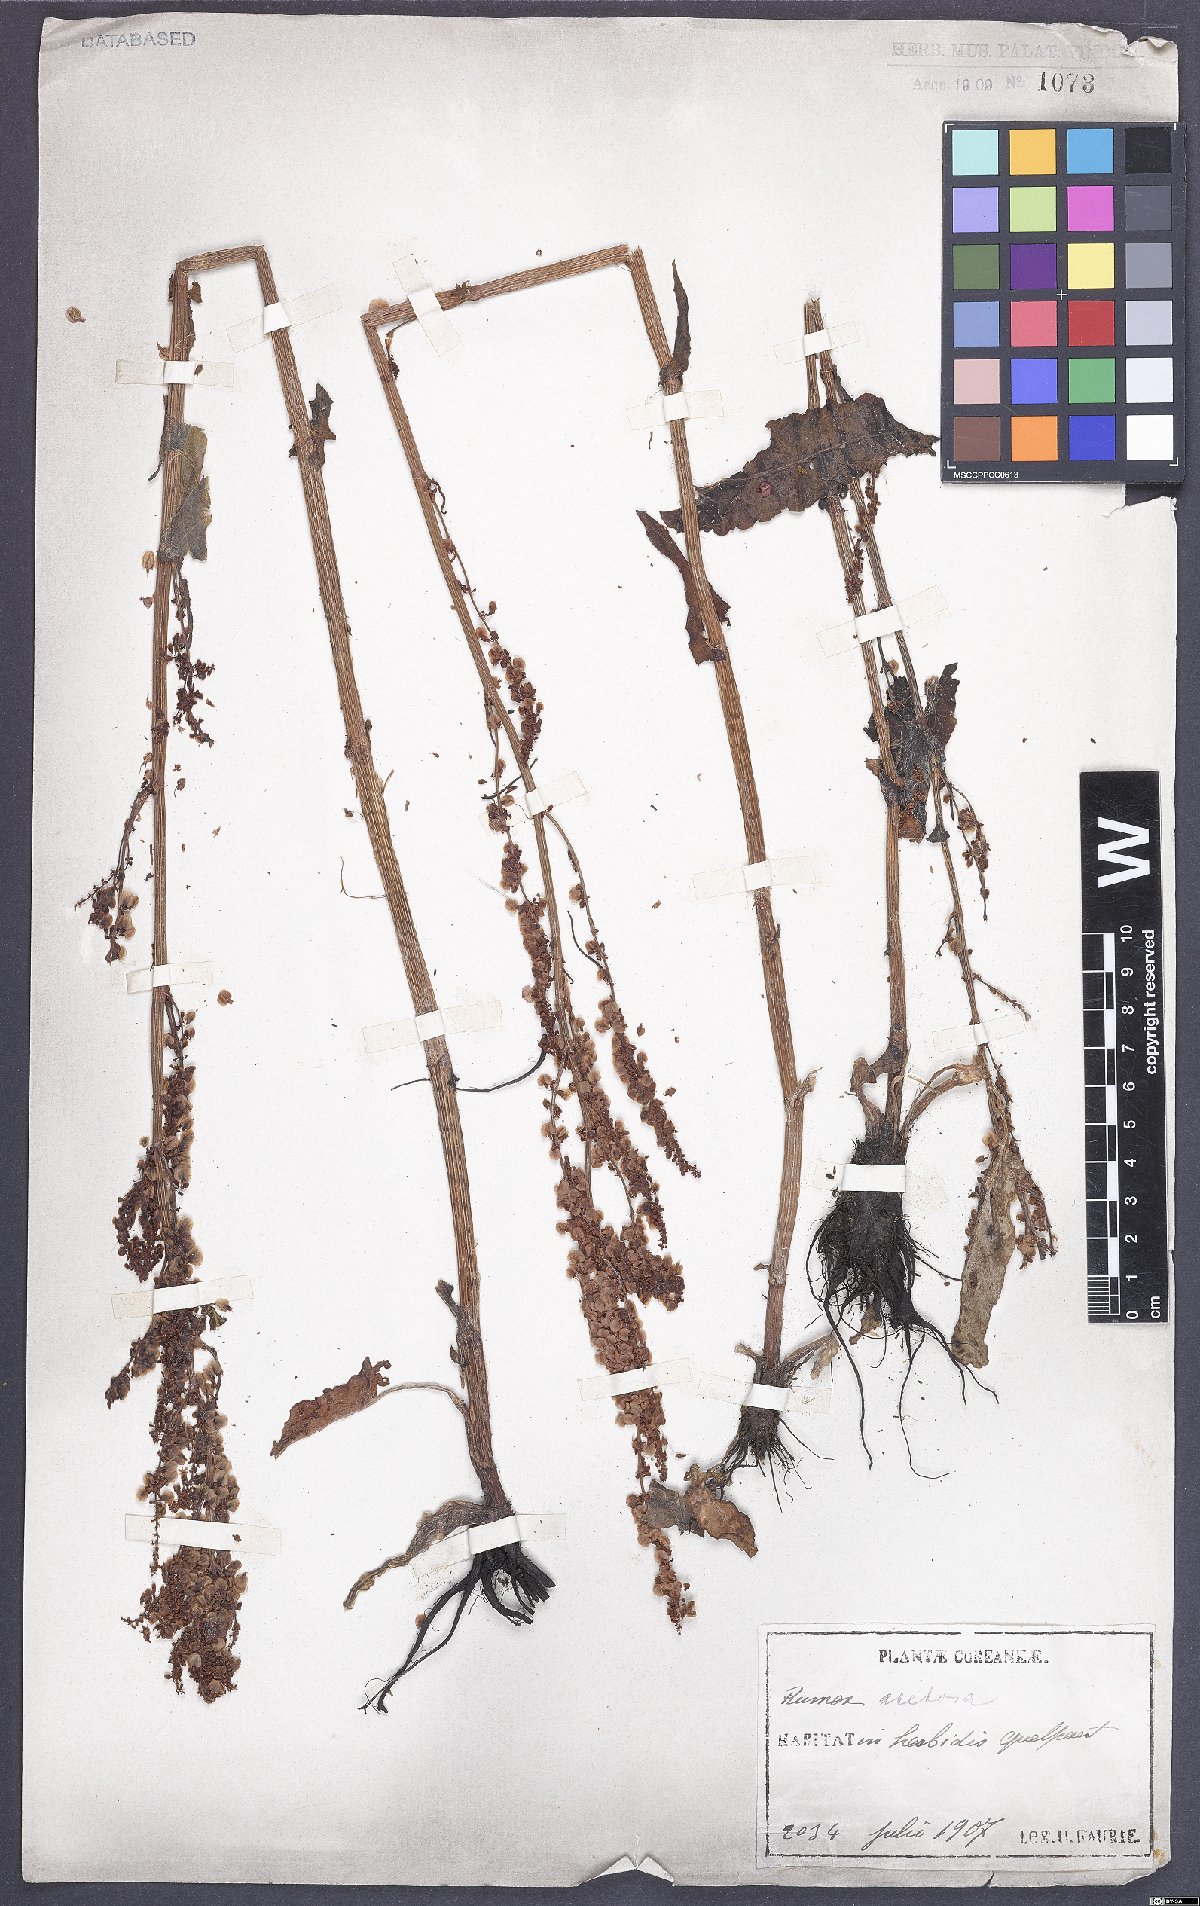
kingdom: Plantae
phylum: Tracheophyta
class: Magnoliopsida
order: Caryophyllales
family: Polygonaceae
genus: Rumex
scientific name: Rumex acetosa
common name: Garden sorrel
